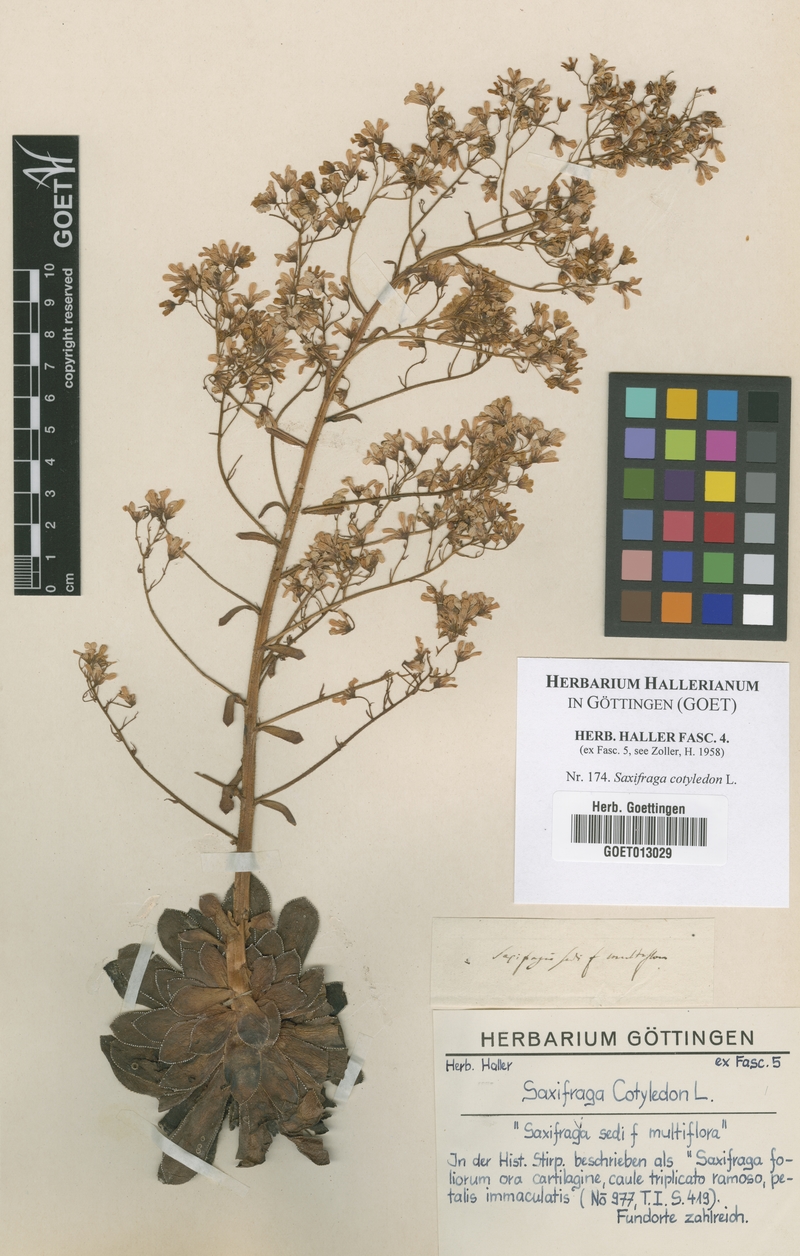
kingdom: Plantae
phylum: Tracheophyta
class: Magnoliopsida
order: Saxifragales
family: Saxifragaceae
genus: Saxifraga
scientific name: Saxifraga cotyledon
